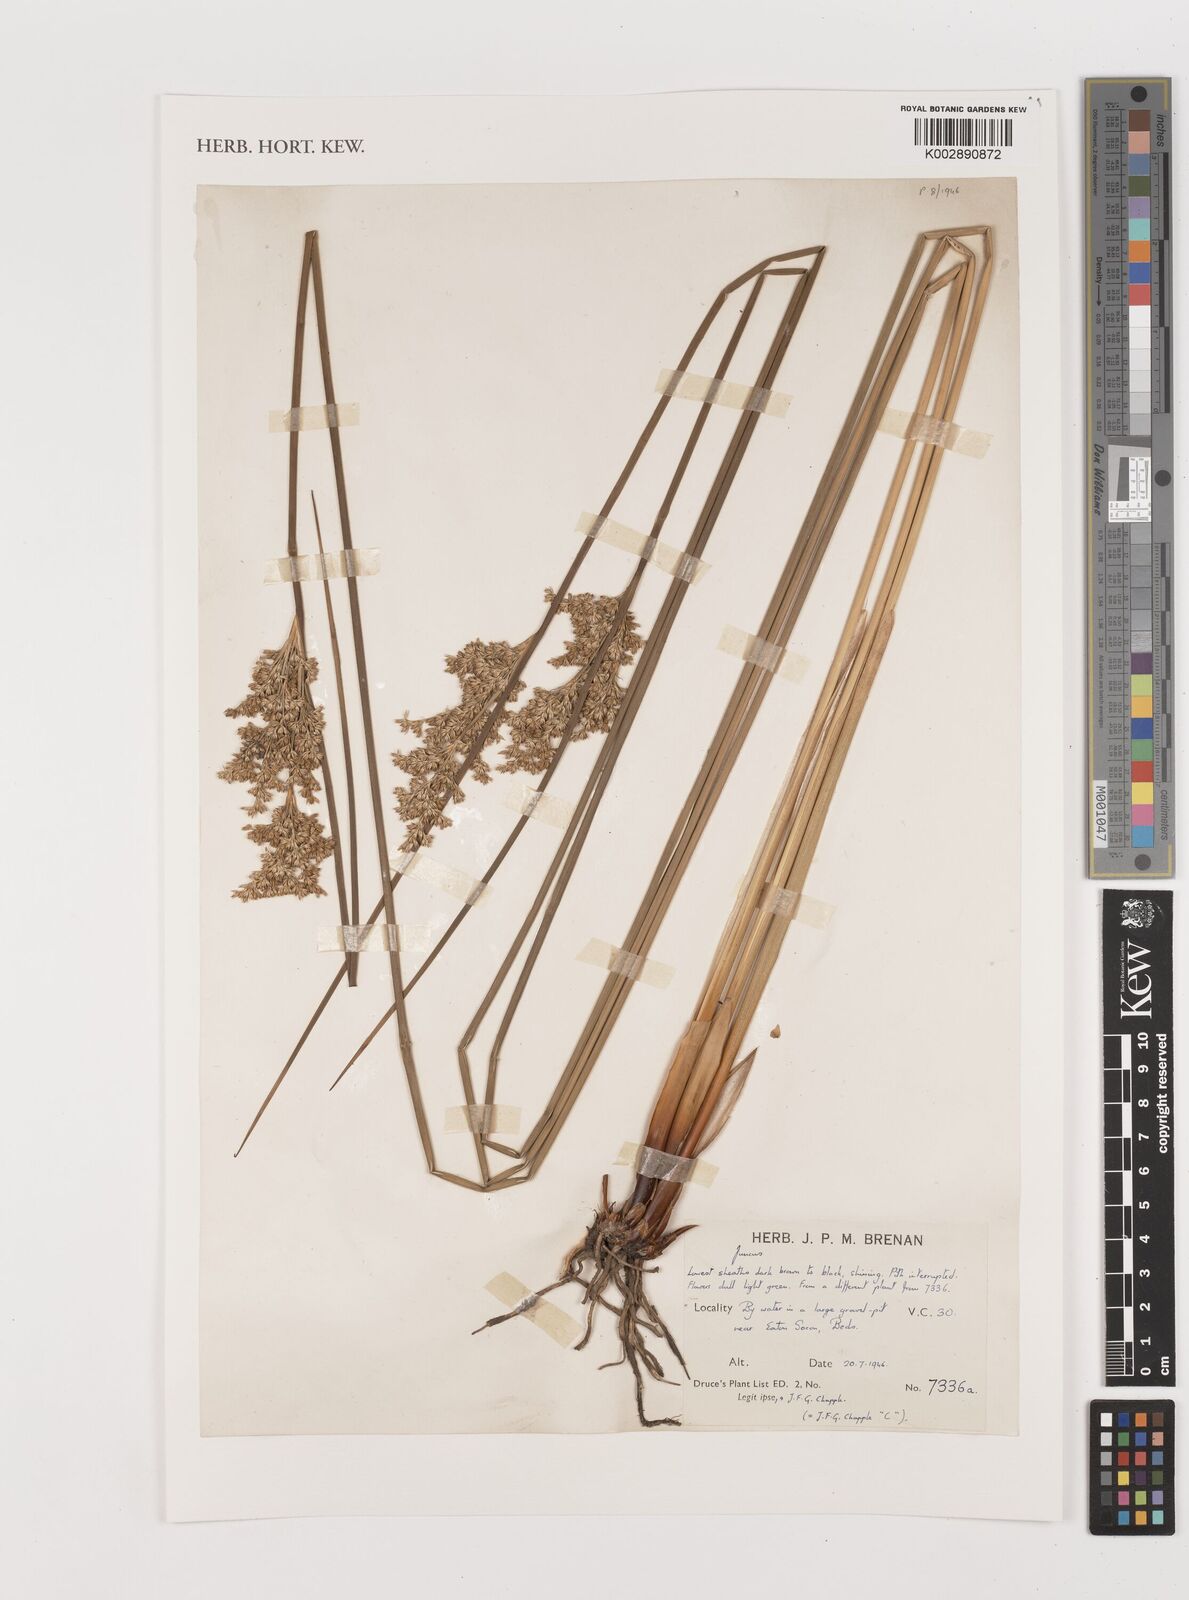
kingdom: Plantae
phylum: Tracheophyta
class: Liliopsida
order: Poales
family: Juncaceae
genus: Juncus
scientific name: Juncus
